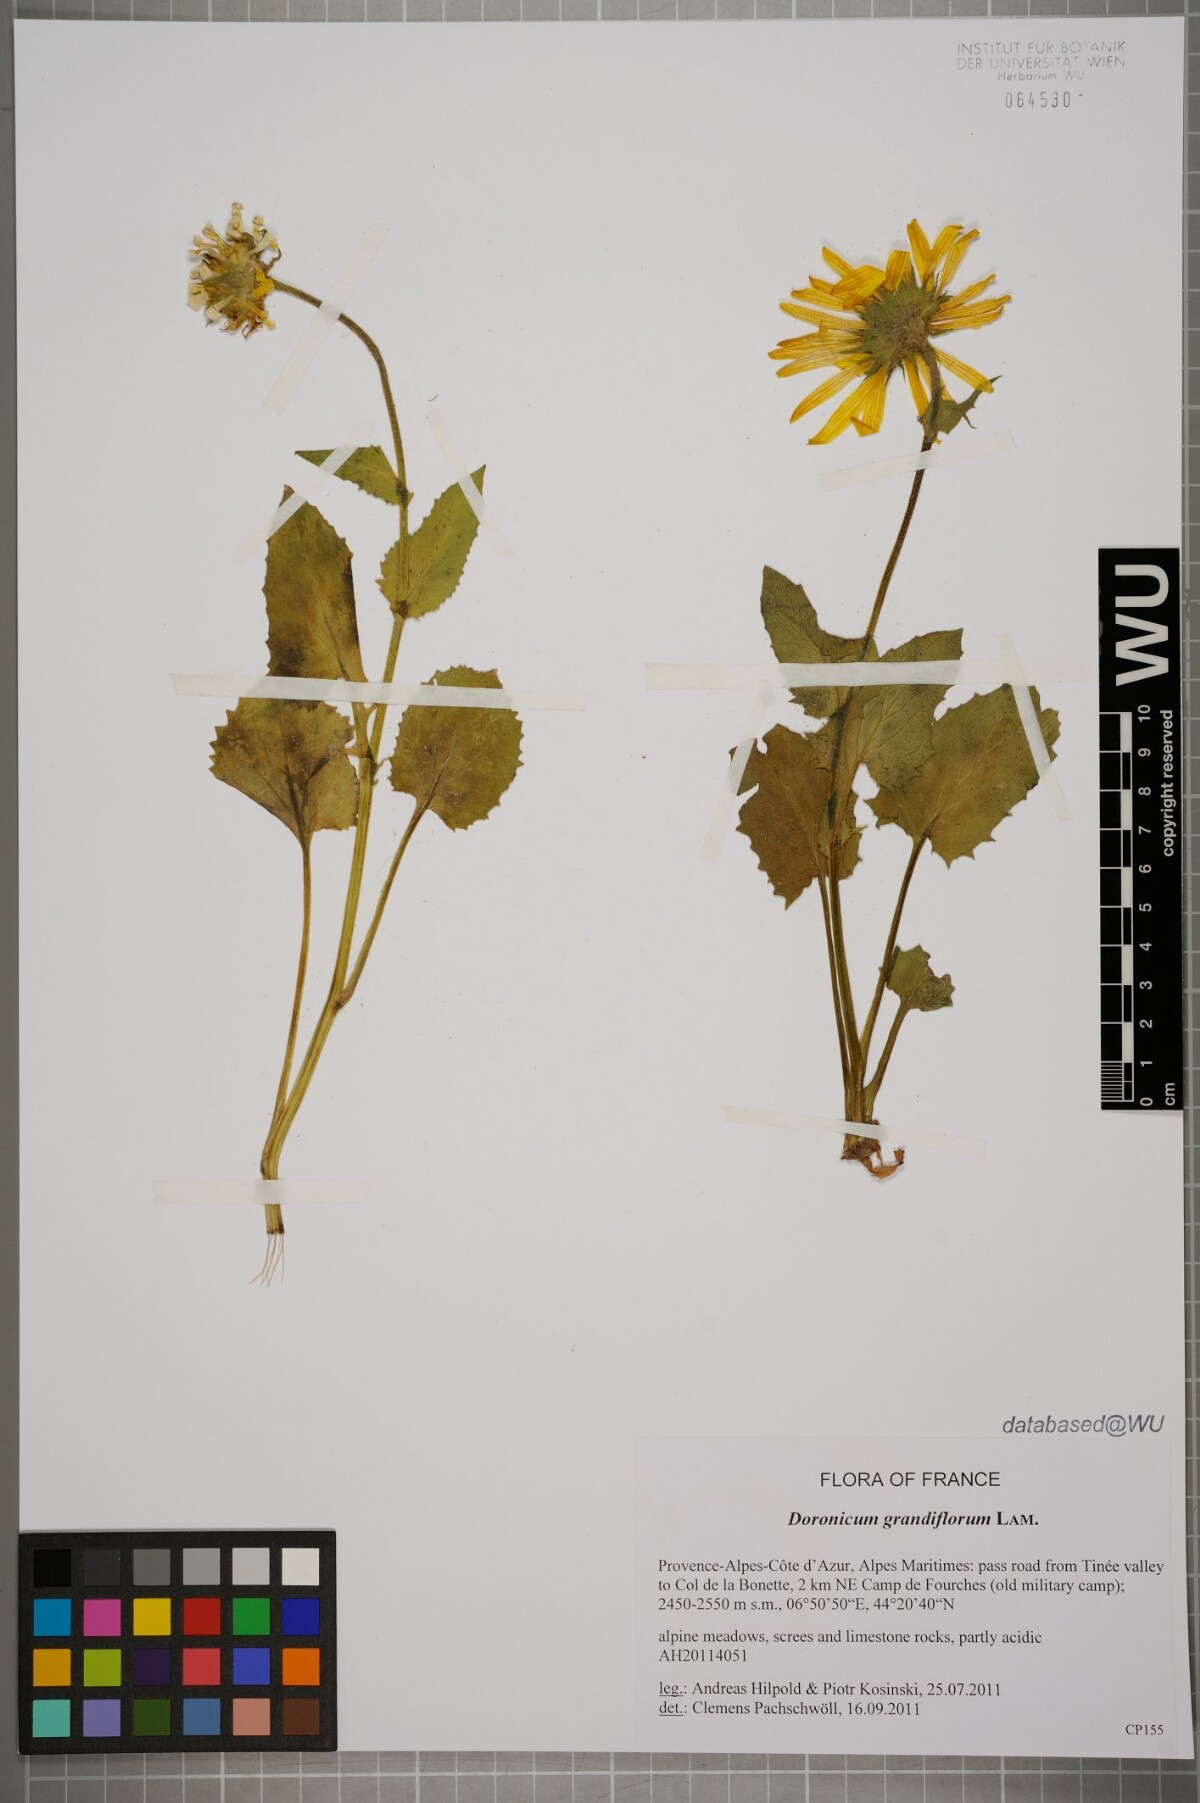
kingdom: Plantae
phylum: Tracheophyta
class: Magnoliopsida
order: Asterales
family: Asteraceae
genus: Doronicum
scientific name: Doronicum grandiflorum
